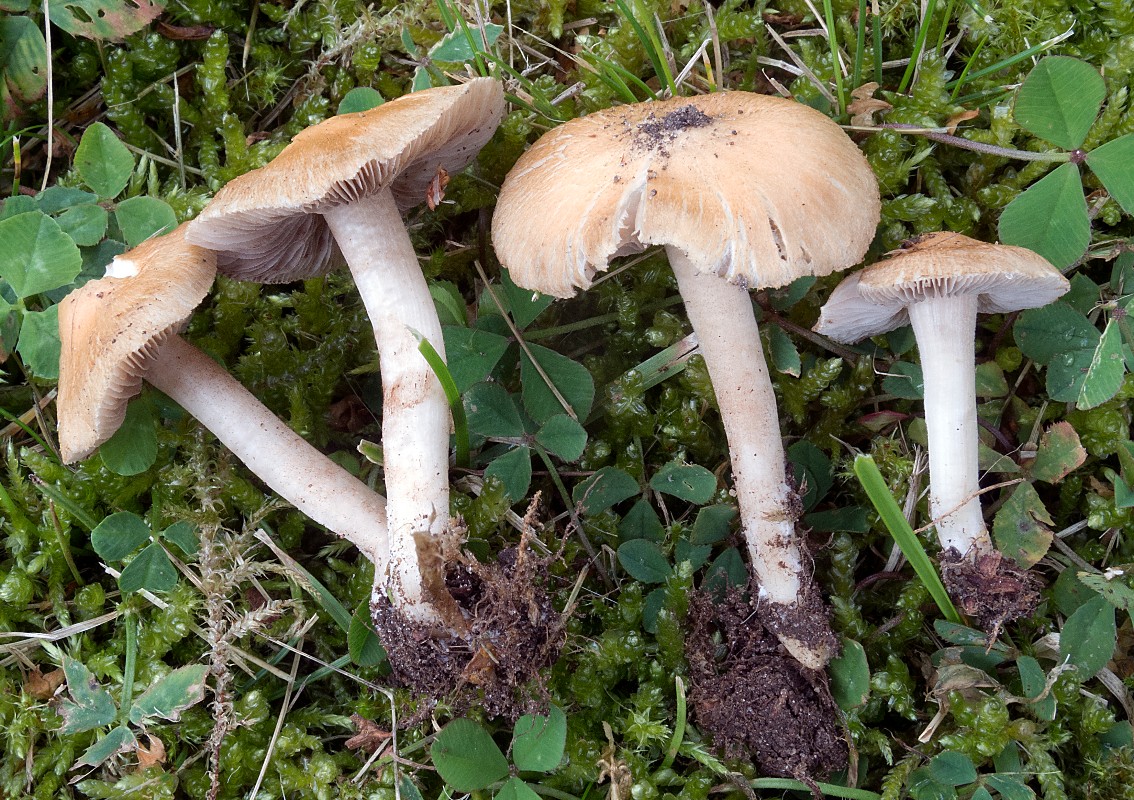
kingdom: Fungi
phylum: Basidiomycota
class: Agaricomycetes
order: Agaricales
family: Inocybaceae
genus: Inocybe
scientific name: Inocybe auricoma
